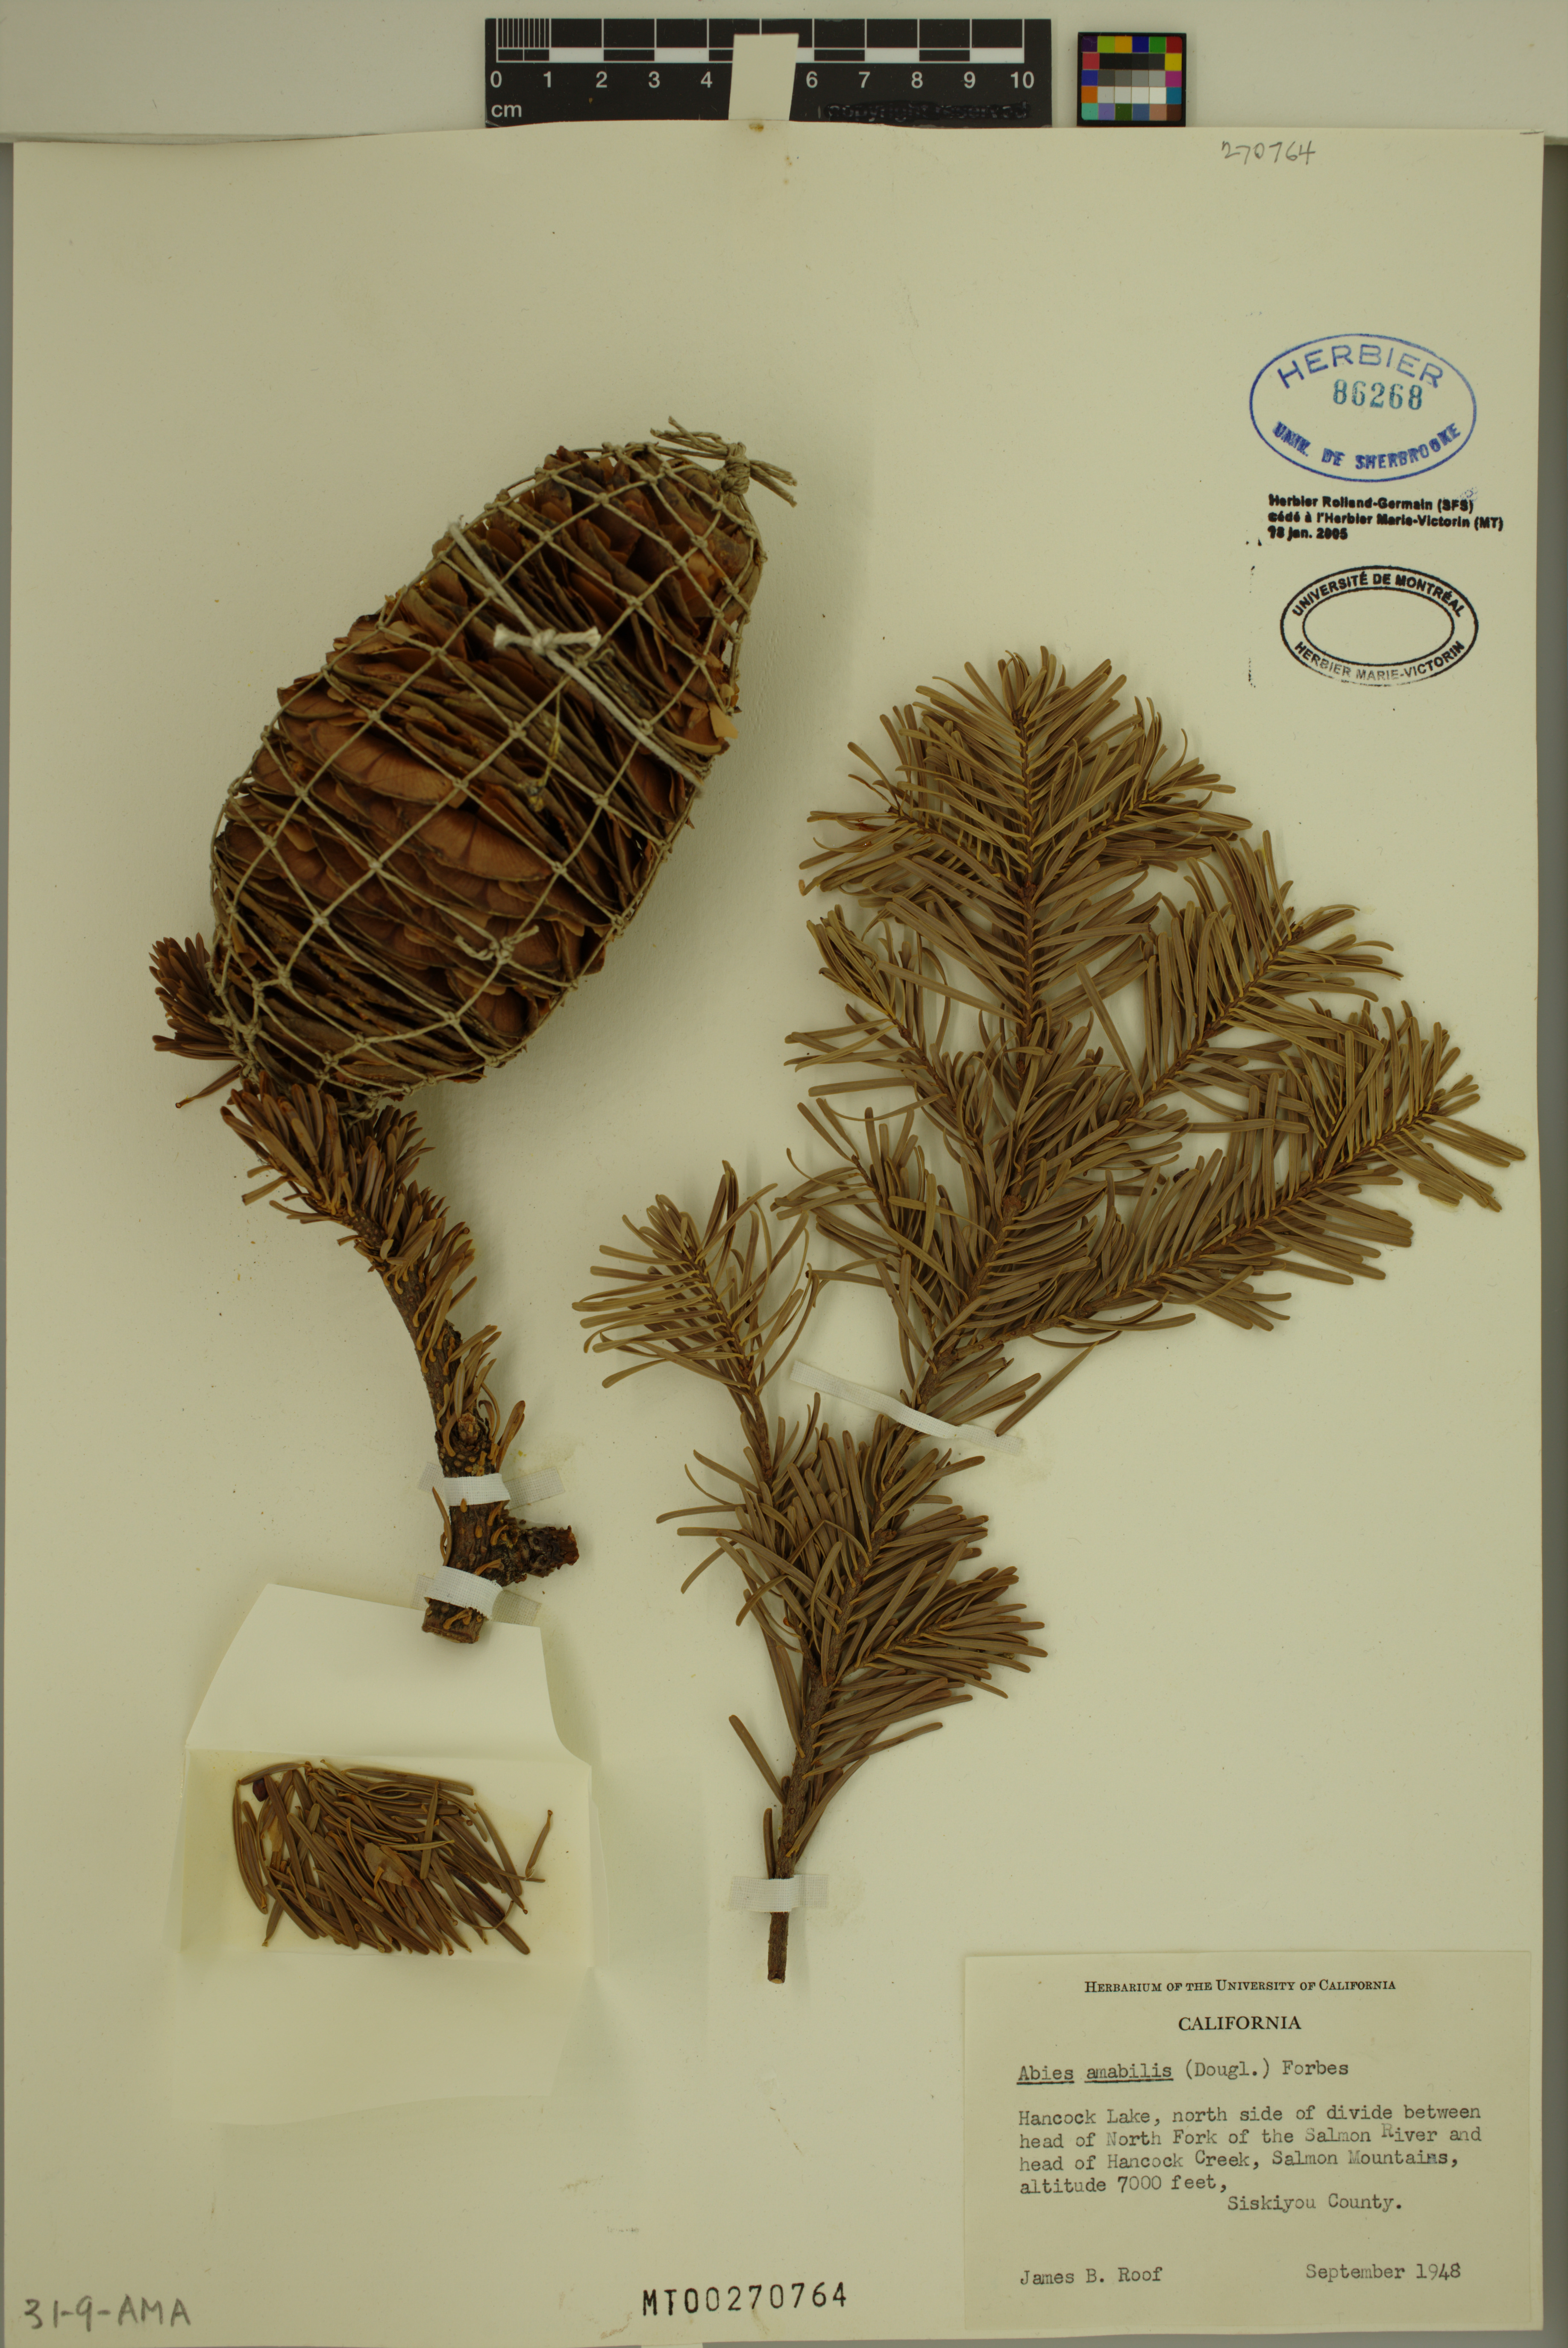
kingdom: Plantae
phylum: Tracheophyta
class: Pinopsida
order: Pinales
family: Pinaceae
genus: Abies
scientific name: Abies amabilis
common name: Pacific silver fir
